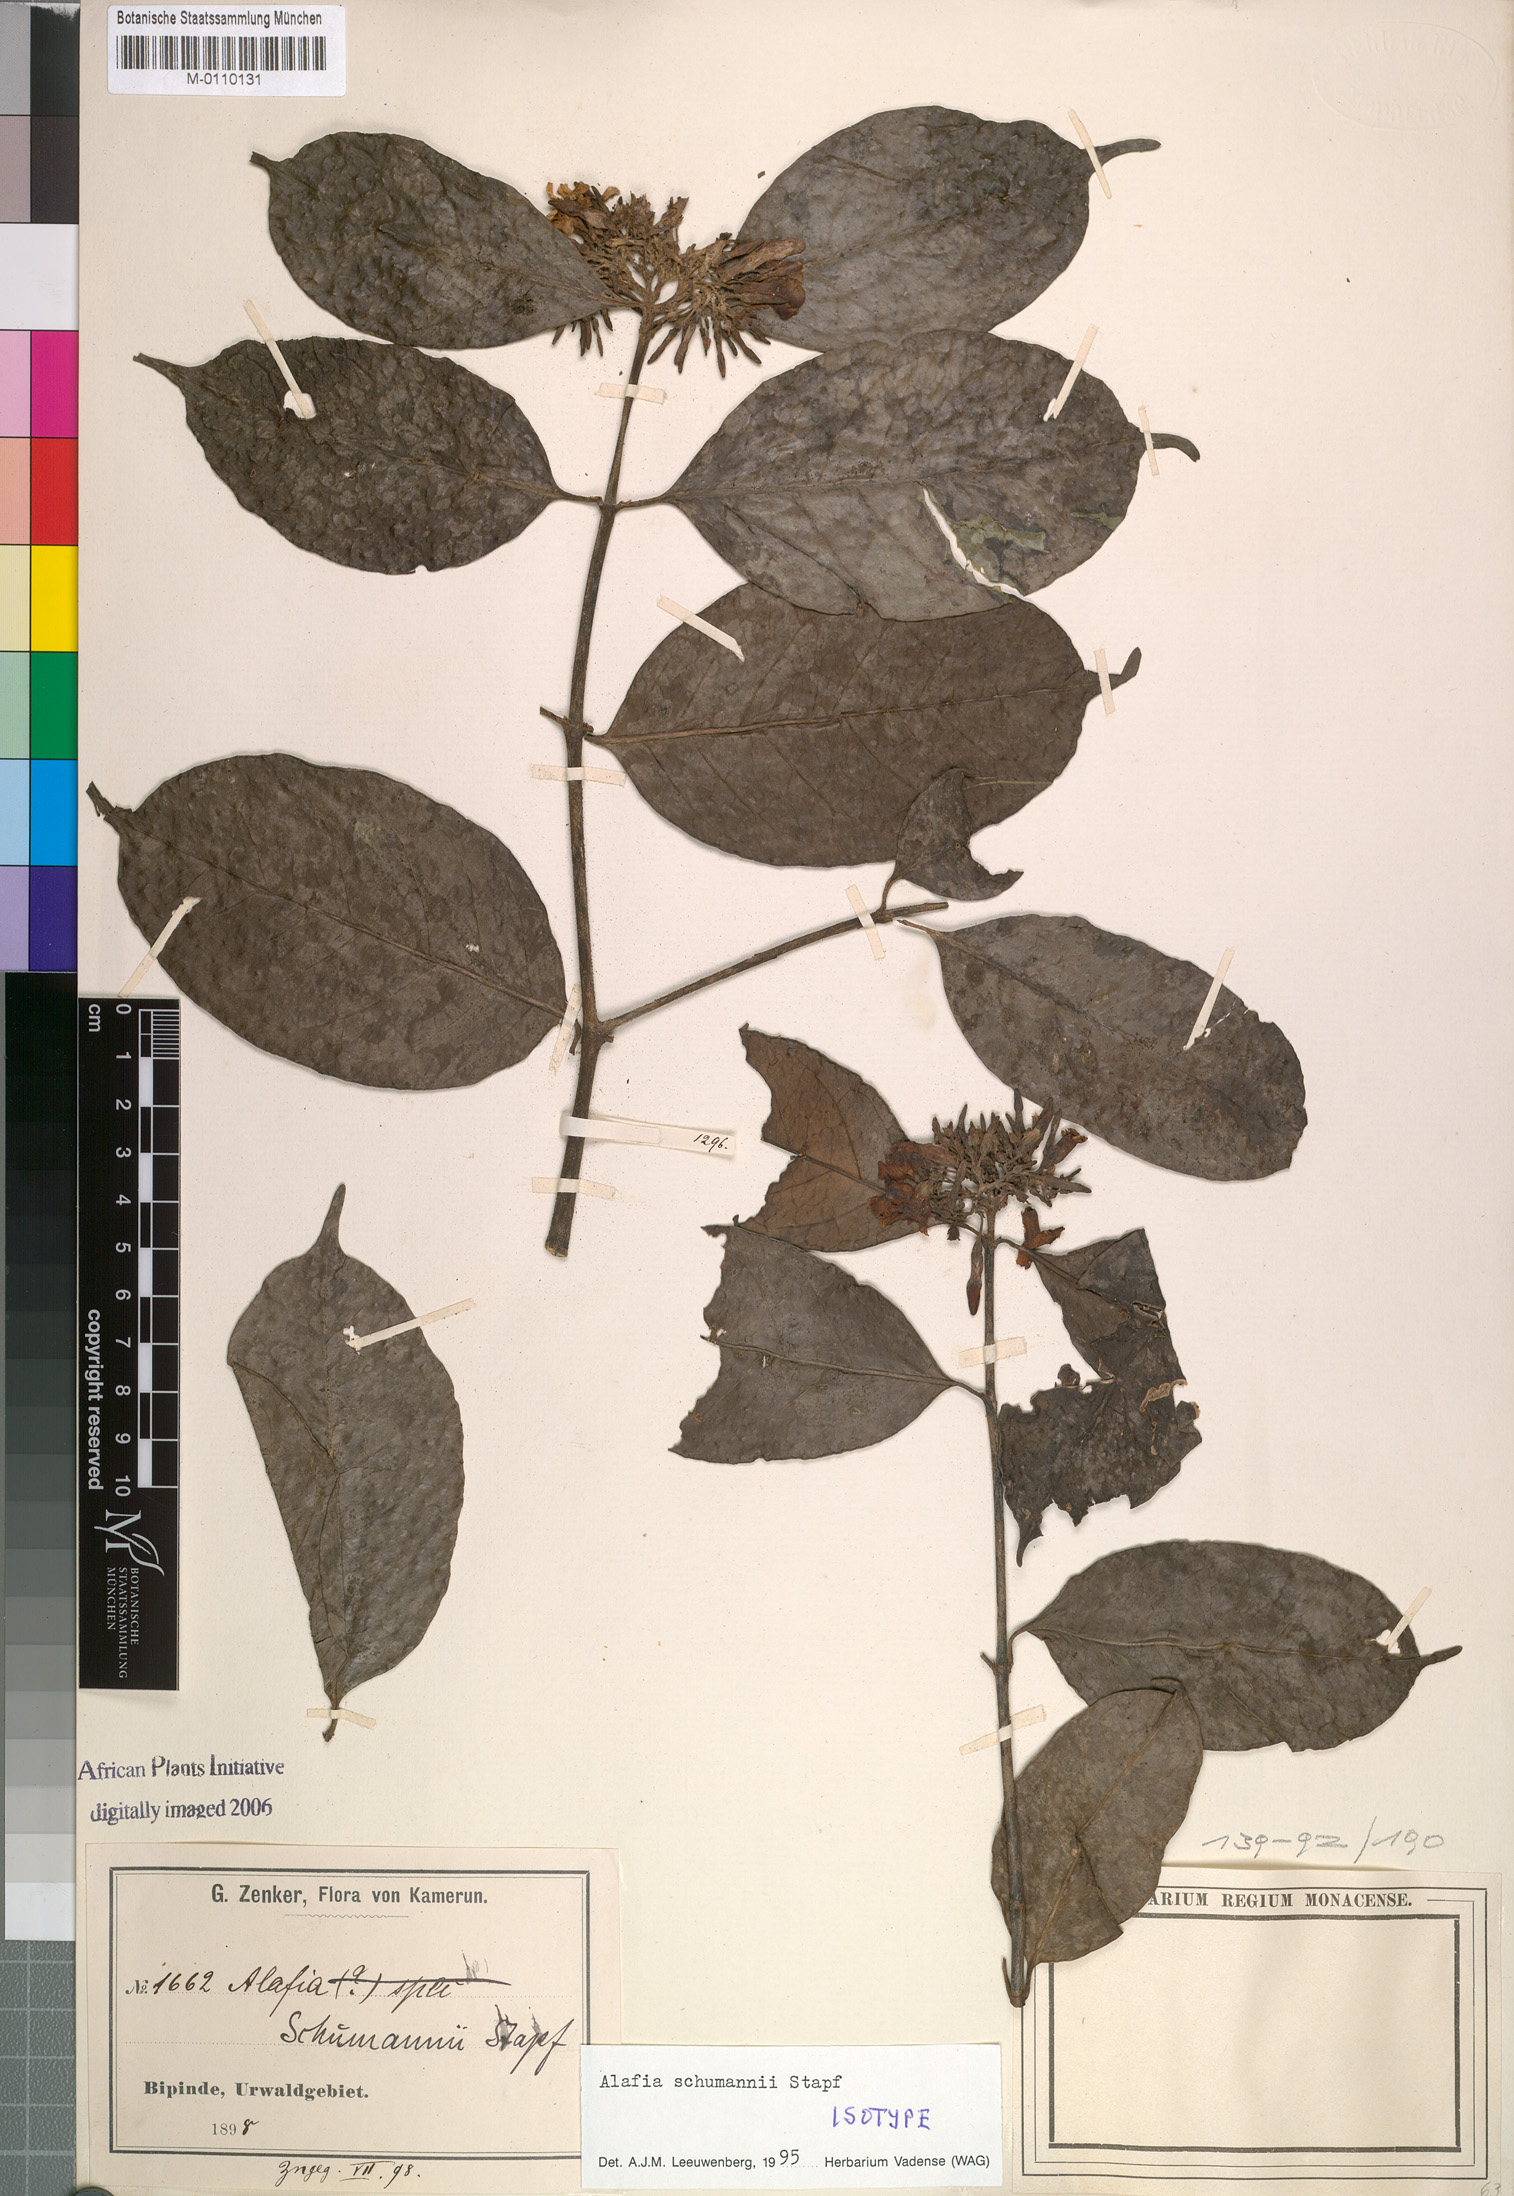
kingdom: Plantae
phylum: Tracheophyta
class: Magnoliopsida
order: Gentianales
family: Apocynaceae
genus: Alafia
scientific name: Alafia schumannii
